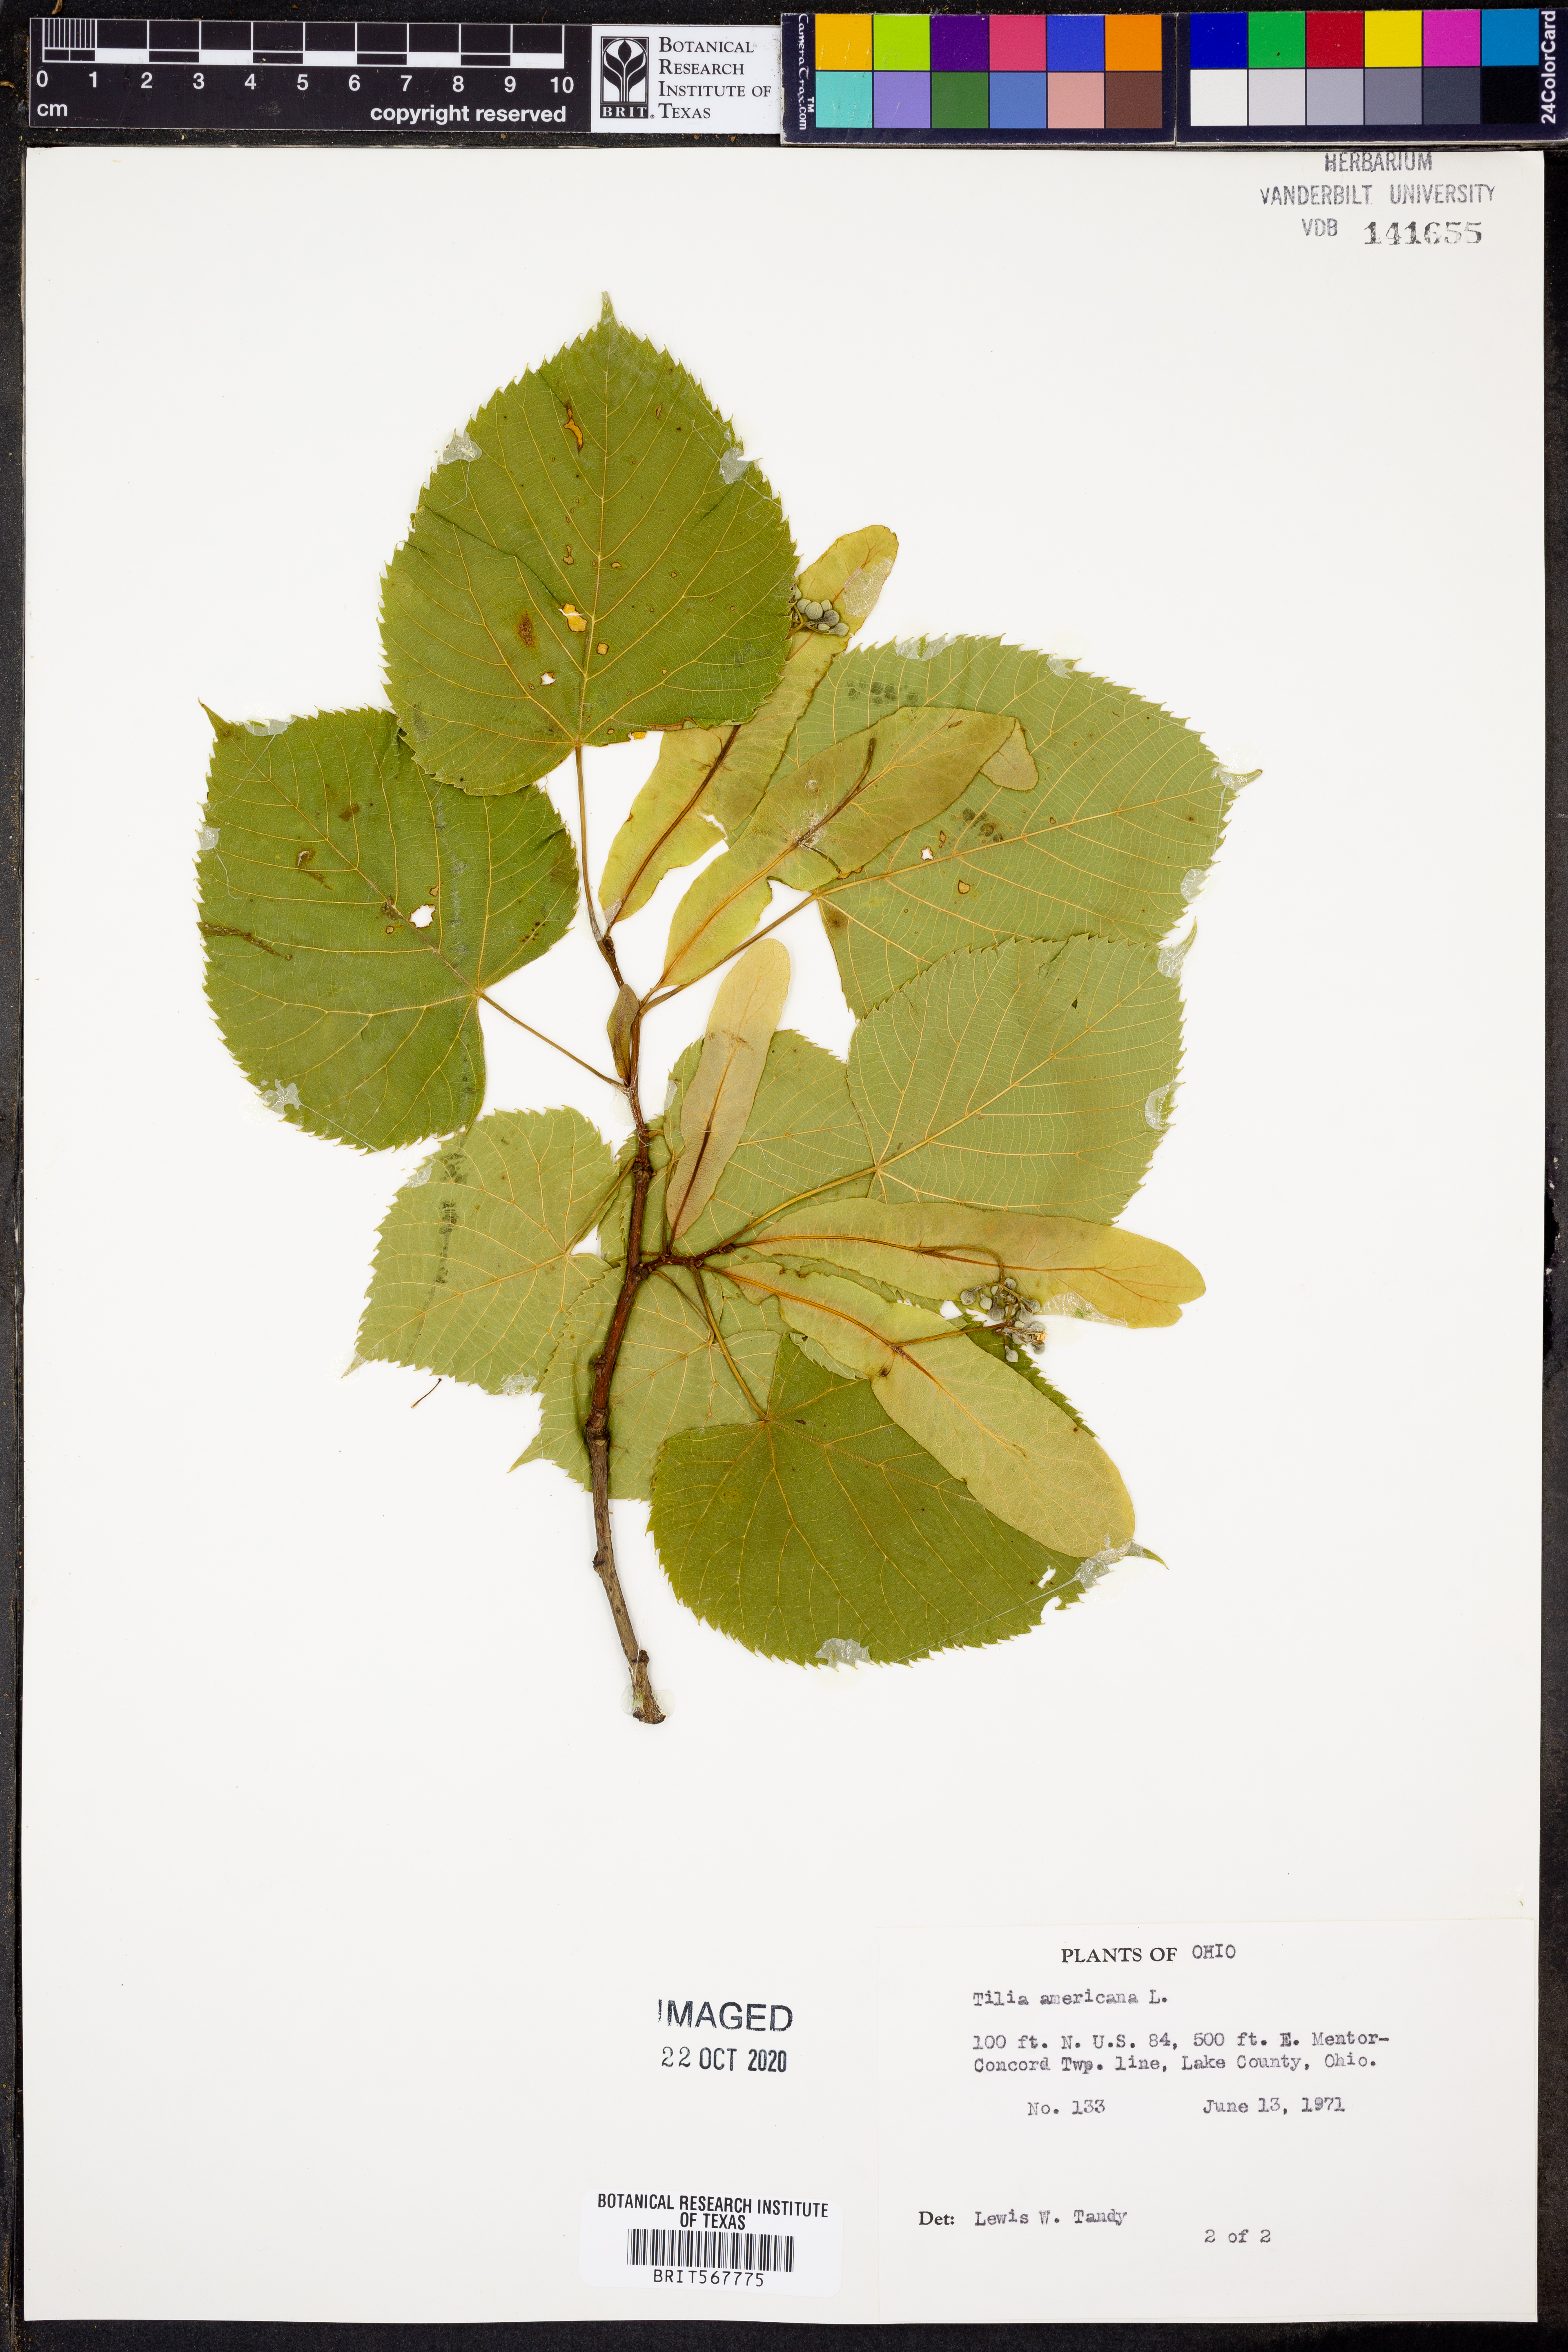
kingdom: Plantae
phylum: Tracheophyta
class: Magnoliopsida
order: Malvales
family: Malvaceae
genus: Tilia
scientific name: Tilia americana
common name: Basswood
